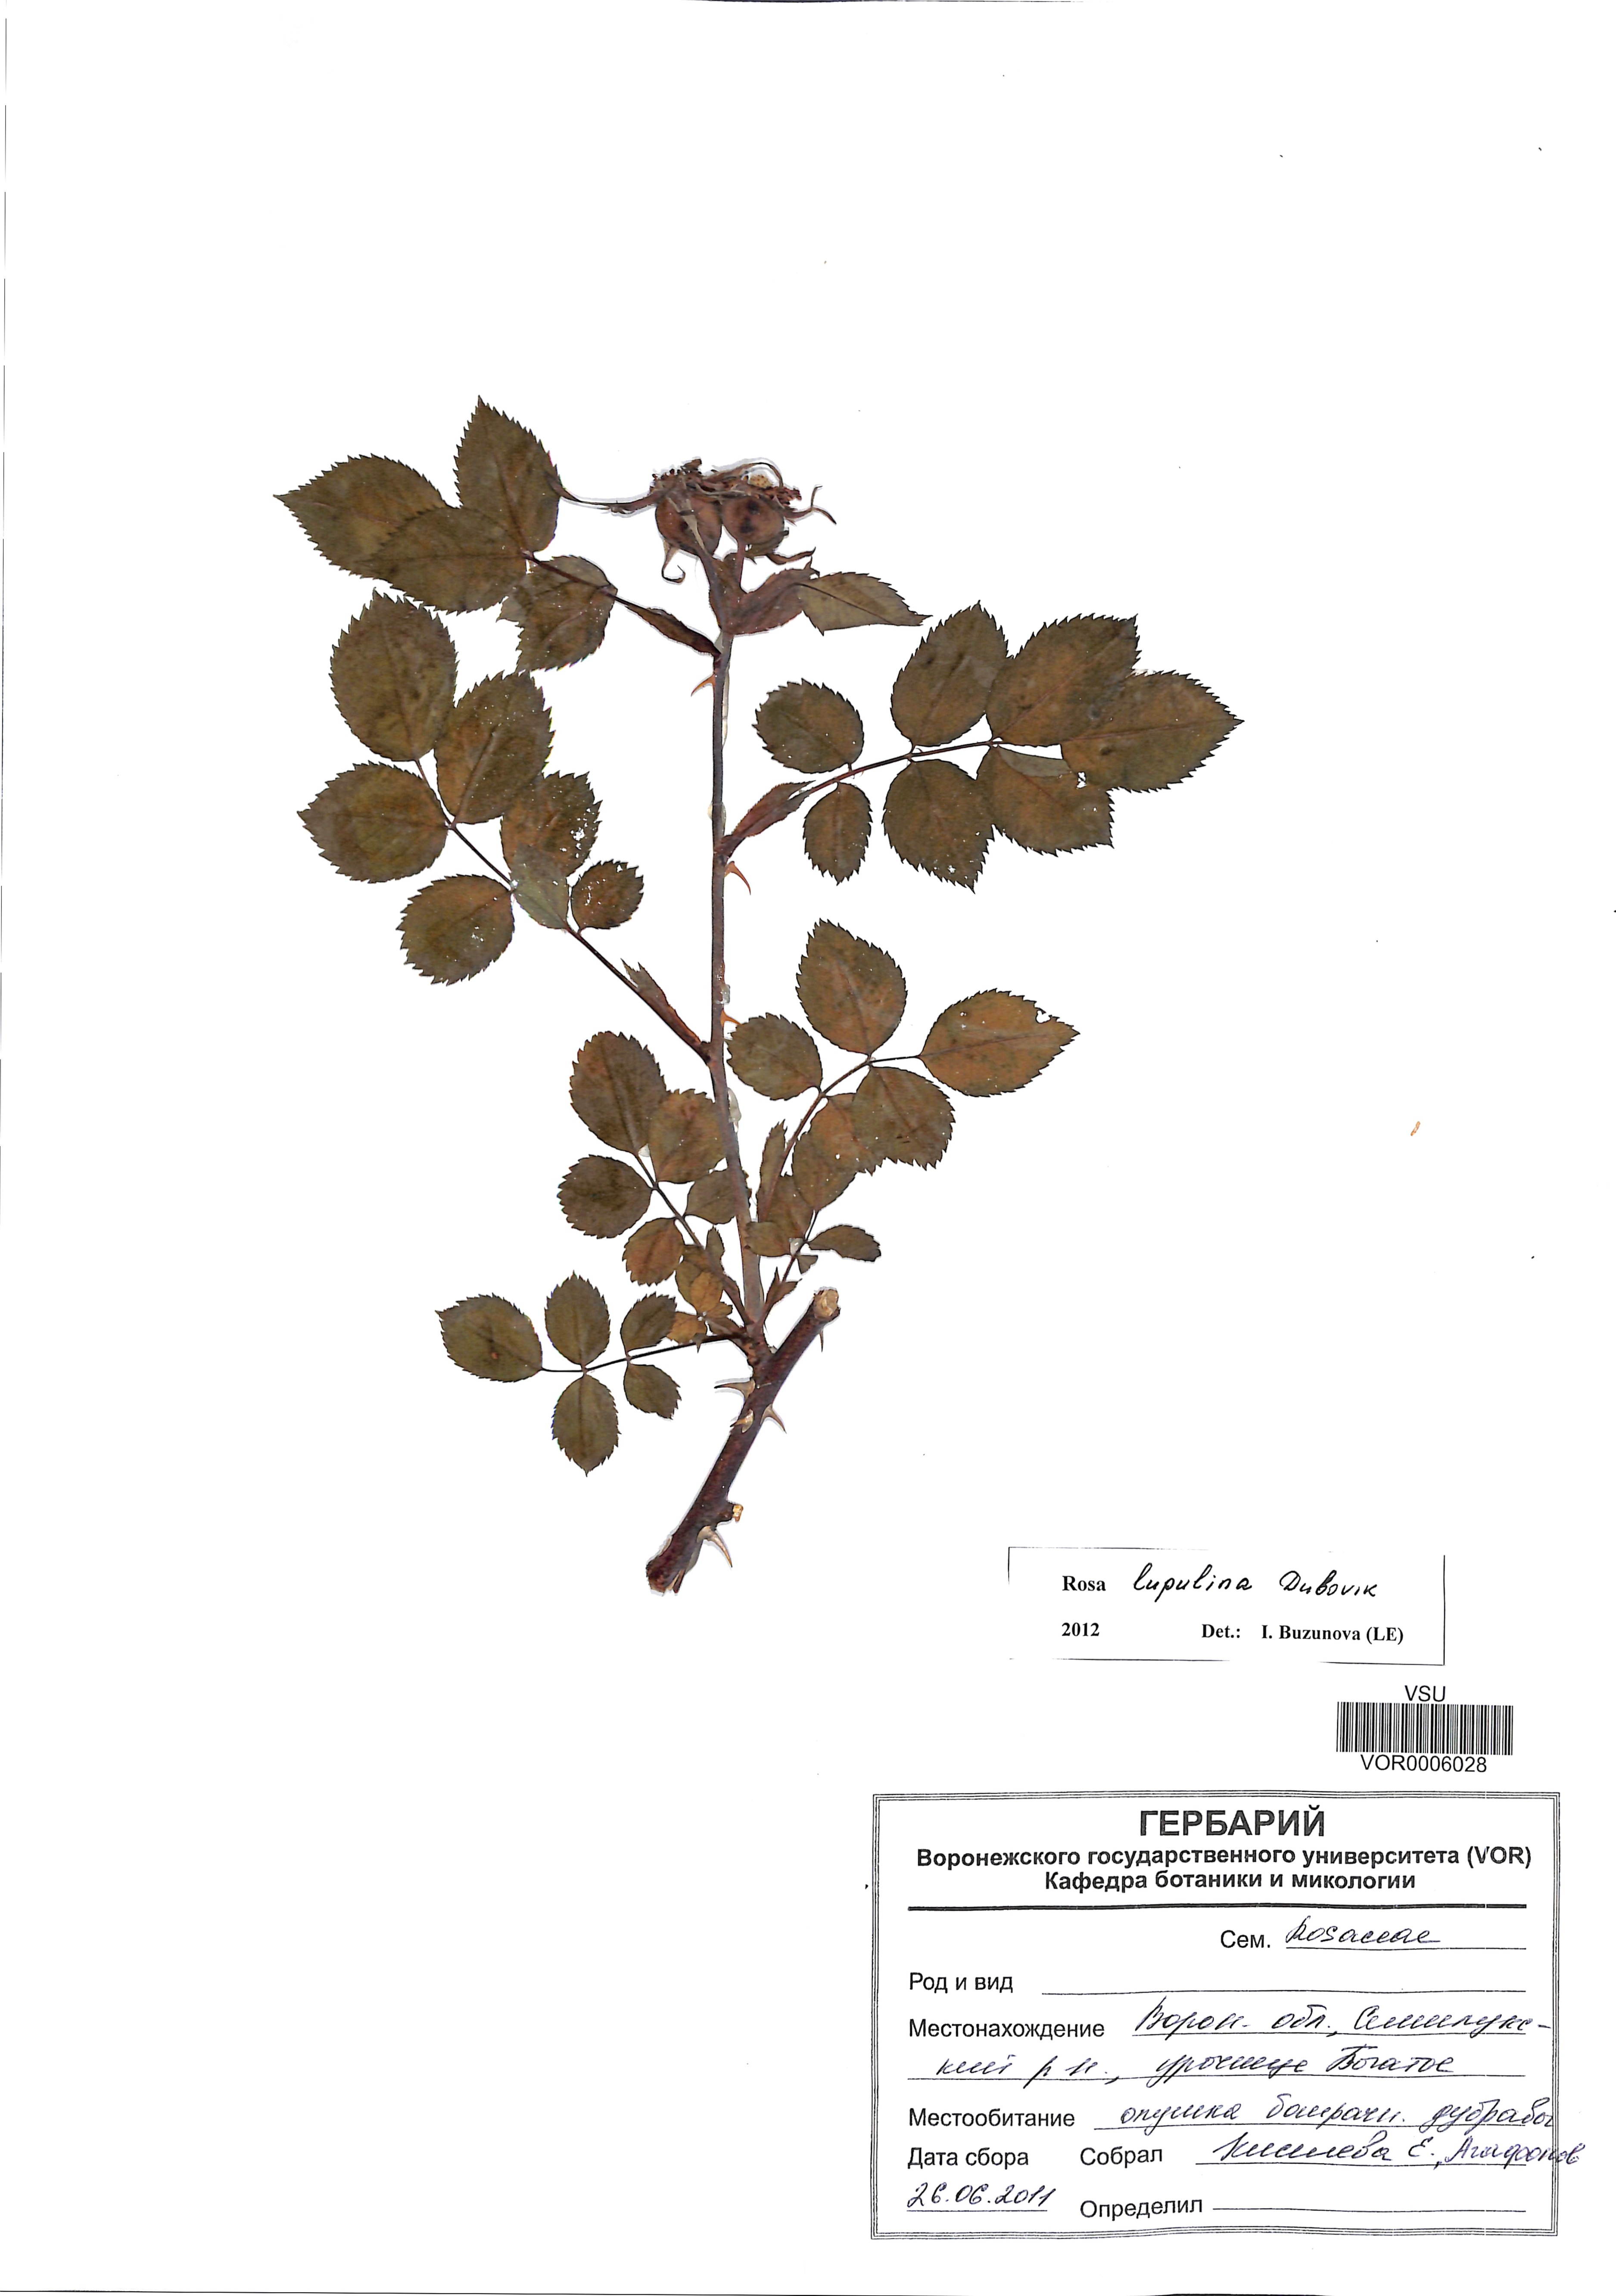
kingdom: Plantae
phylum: Tracheophyta
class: Magnoliopsida
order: Rosales
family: Rosaceae
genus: Rosa
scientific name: Rosa
